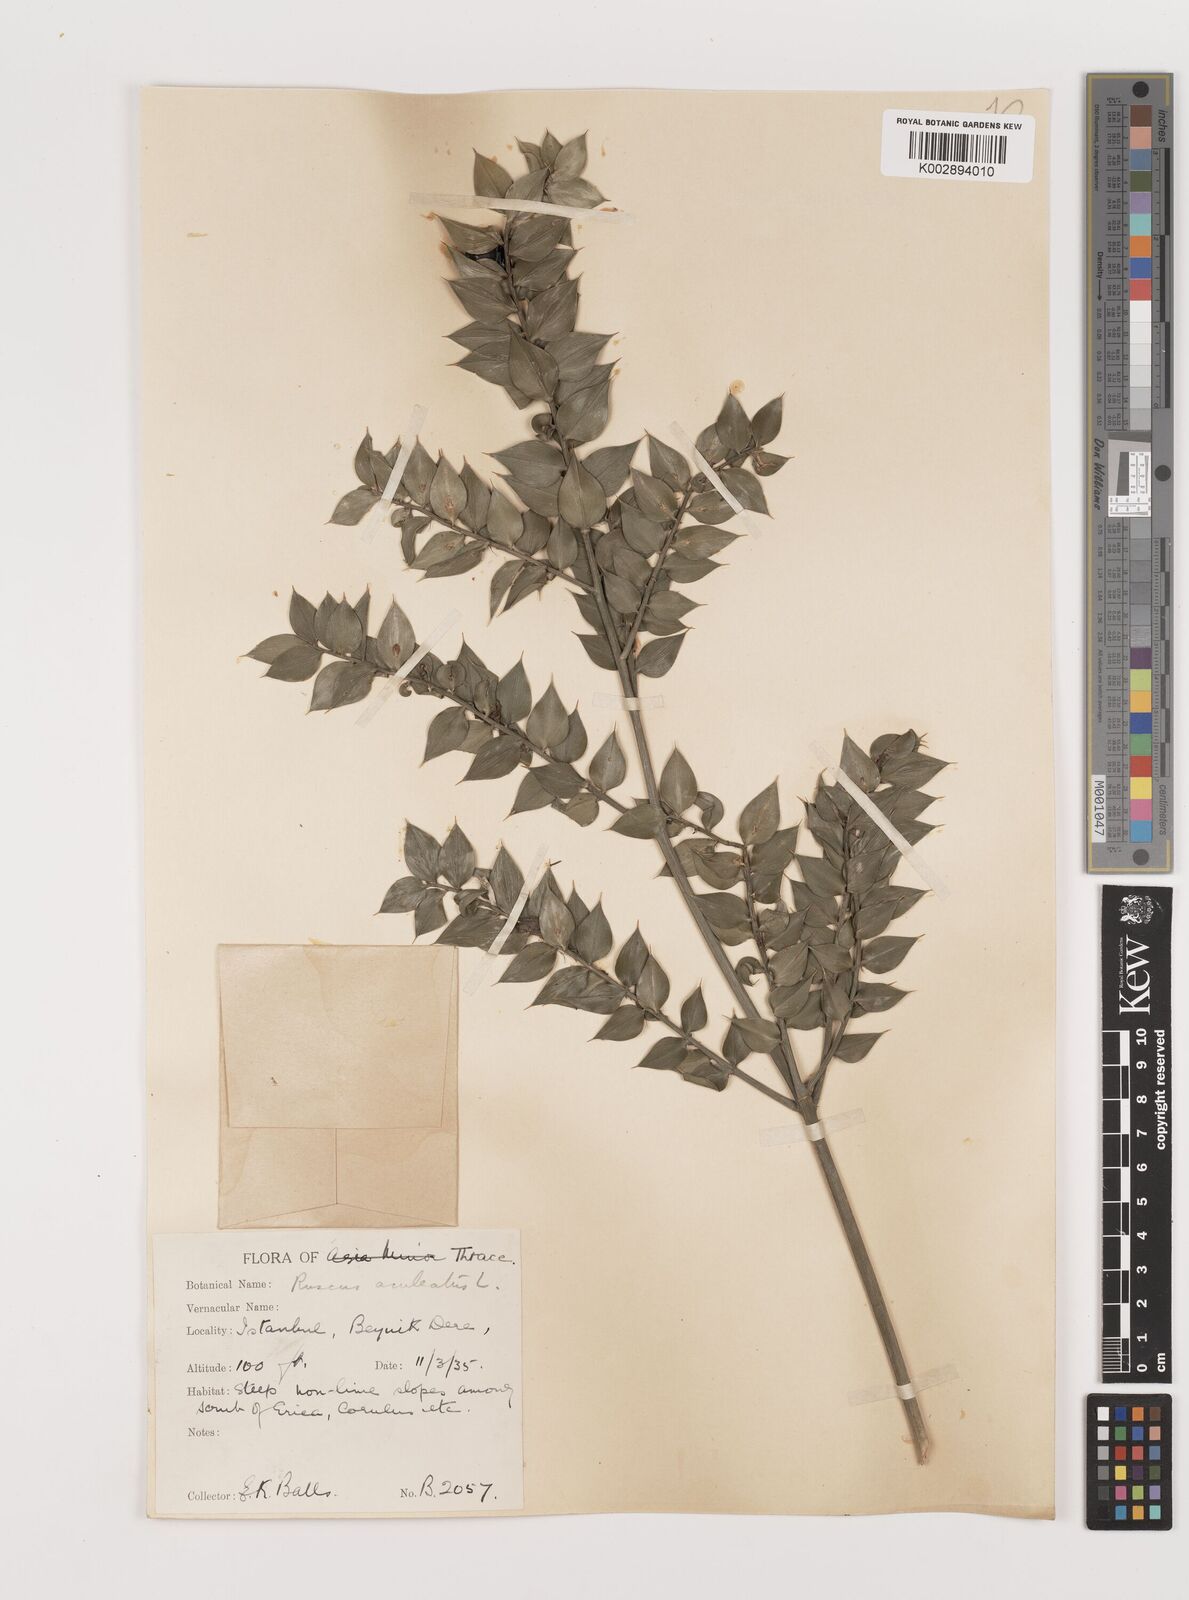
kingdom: Plantae
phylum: Tracheophyta
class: Liliopsida
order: Asparagales
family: Asparagaceae
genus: Ruscus
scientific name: Ruscus aculeatus
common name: Butcher's-broom
